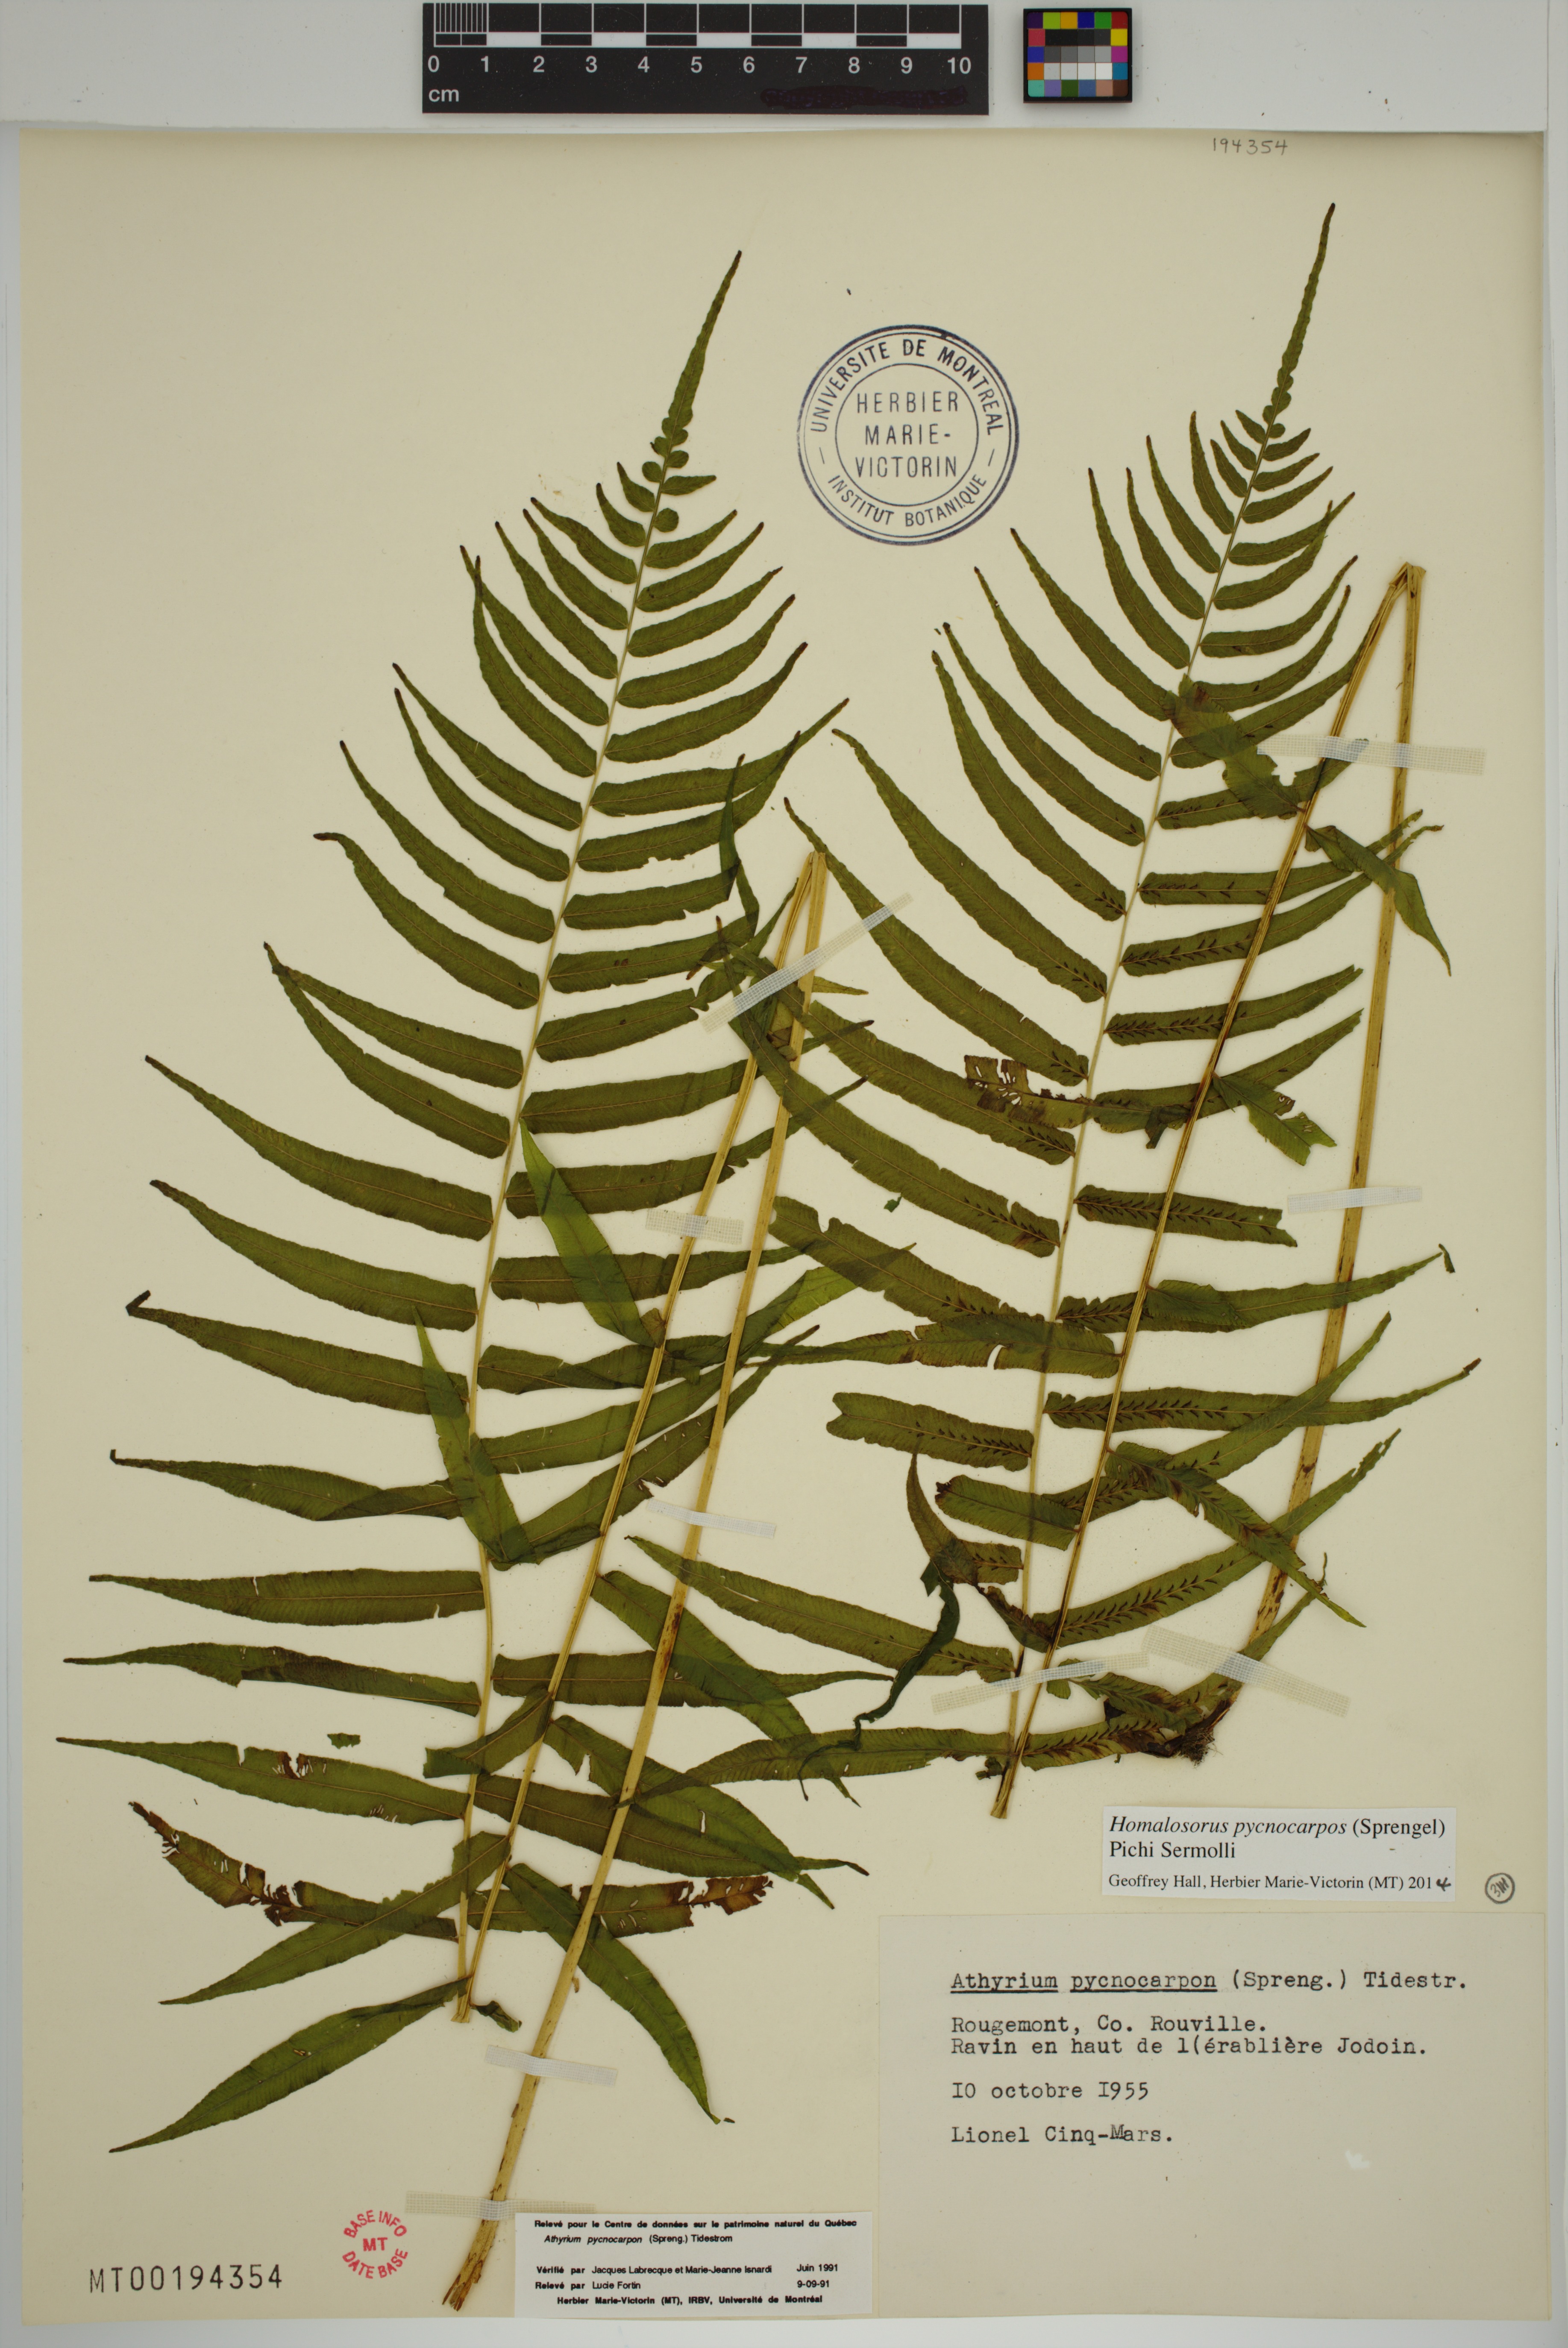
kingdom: Plantae
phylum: Tracheophyta
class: Polypodiopsida
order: Polypodiales
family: Diplaziopsidaceae
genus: Homalosorus
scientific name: Homalosorus pycnocarpos
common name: Glade fern
